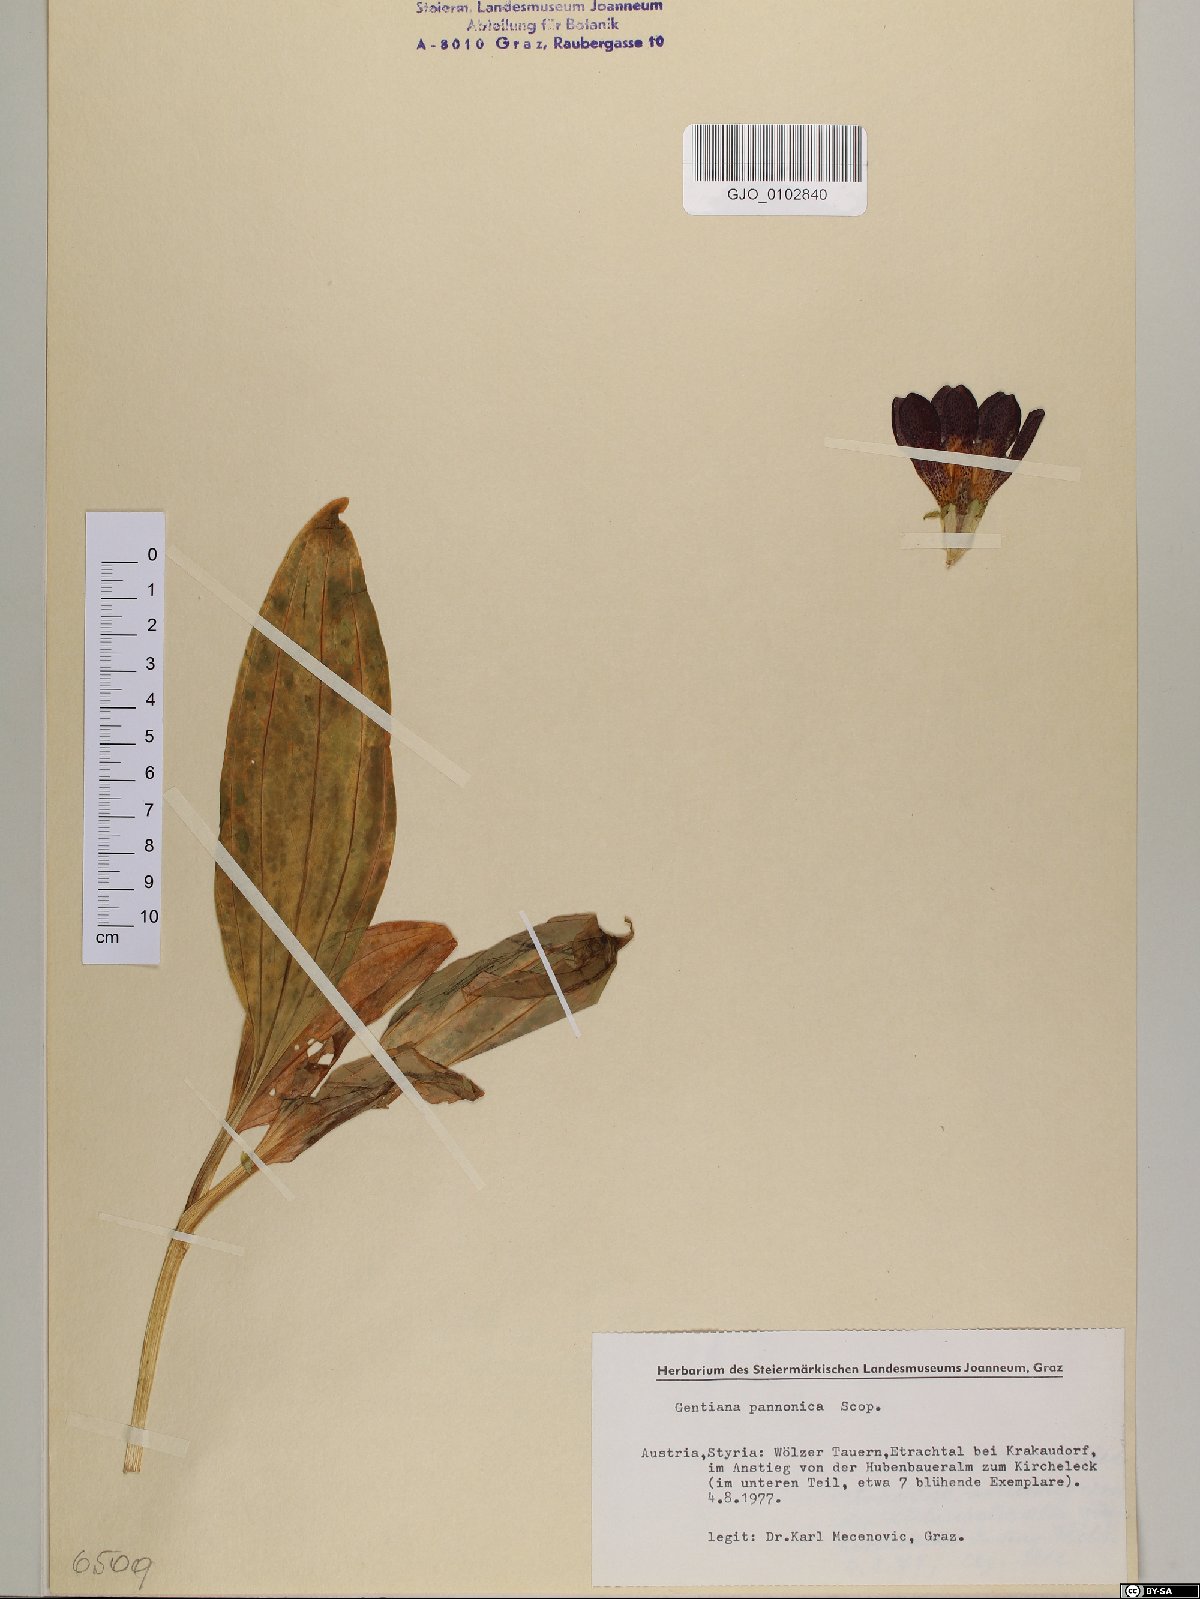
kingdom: Plantae
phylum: Tracheophyta
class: Magnoliopsida
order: Gentianales
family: Gentianaceae
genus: Gentiana
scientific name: Gentiana pannonica
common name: Hungarian gentian
